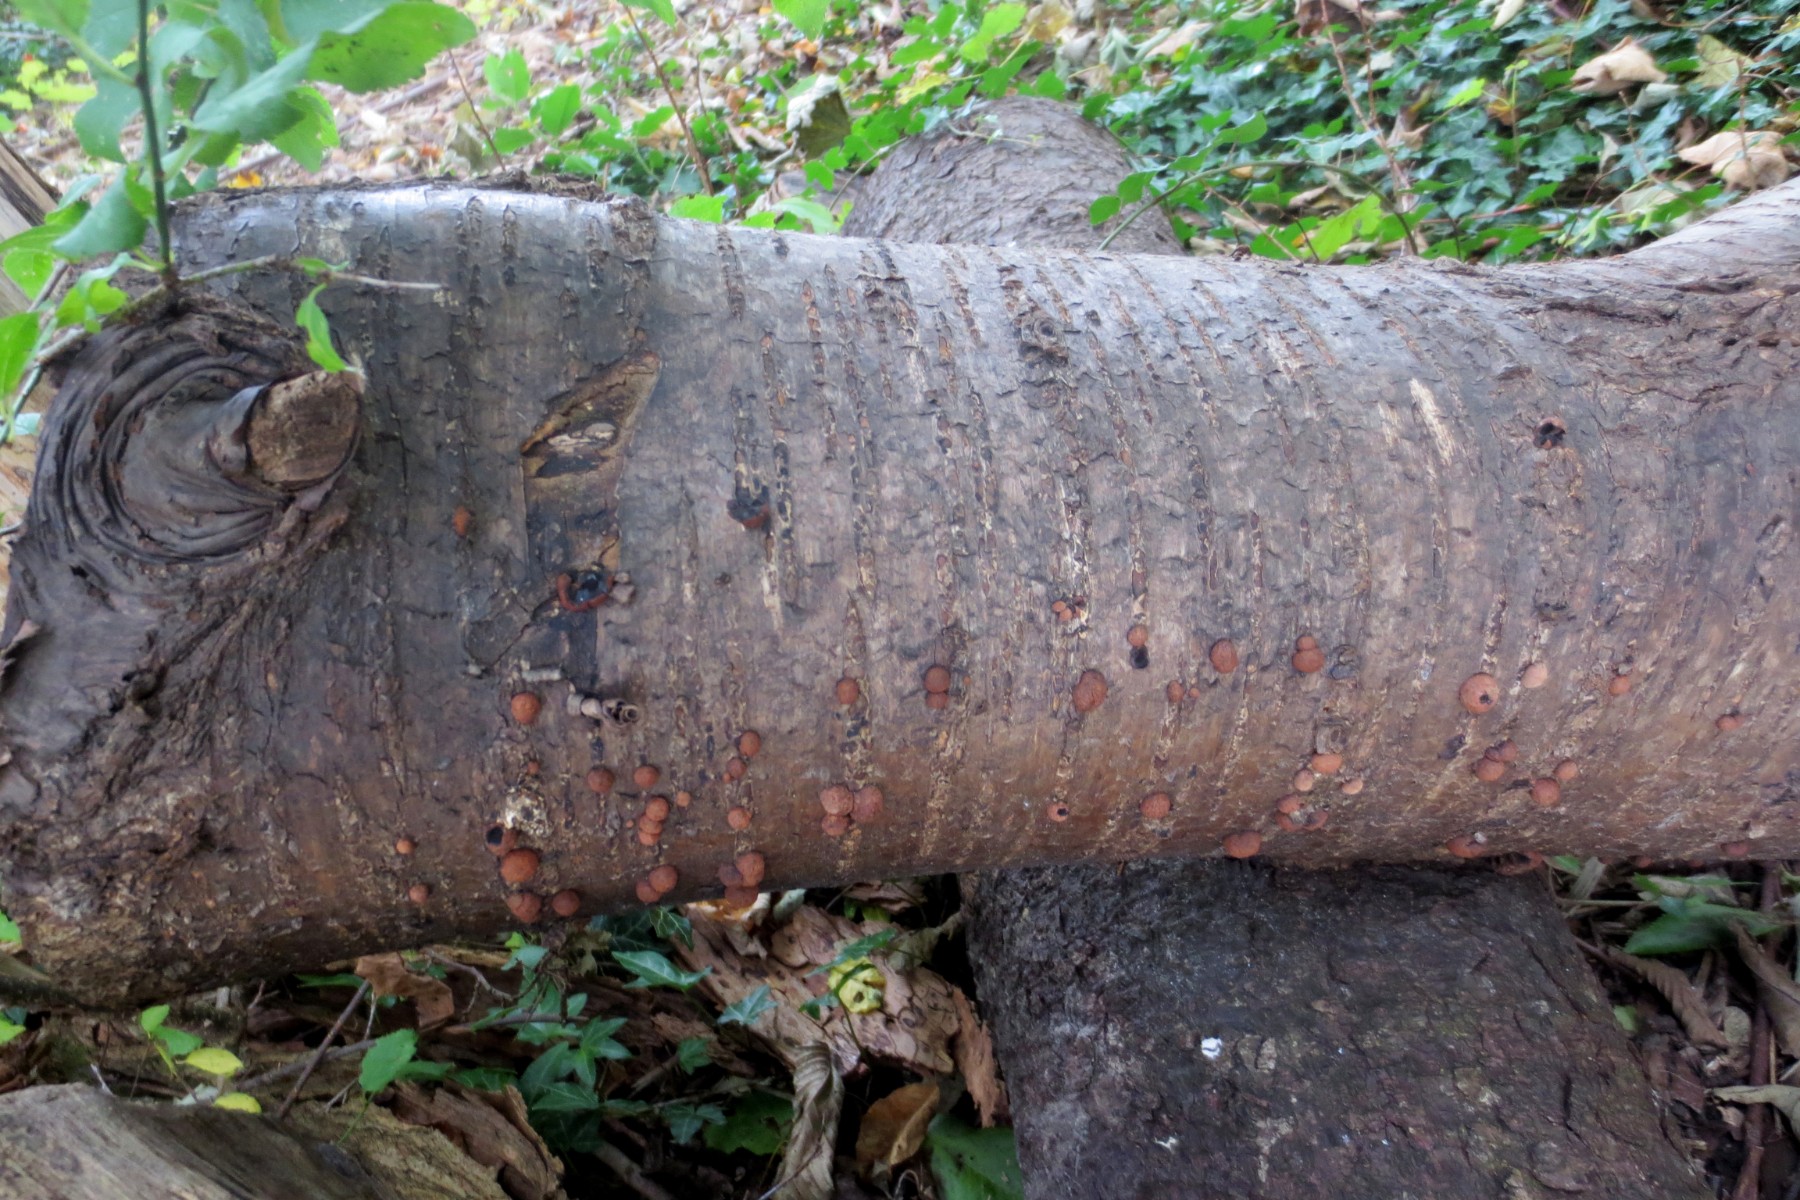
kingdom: Fungi
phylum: Ascomycota
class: Sordariomycetes
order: Xylariales
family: Hypoxylaceae
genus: Hypoxylon
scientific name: Hypoxylon howeanum
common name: halvkugleformet kulbær
